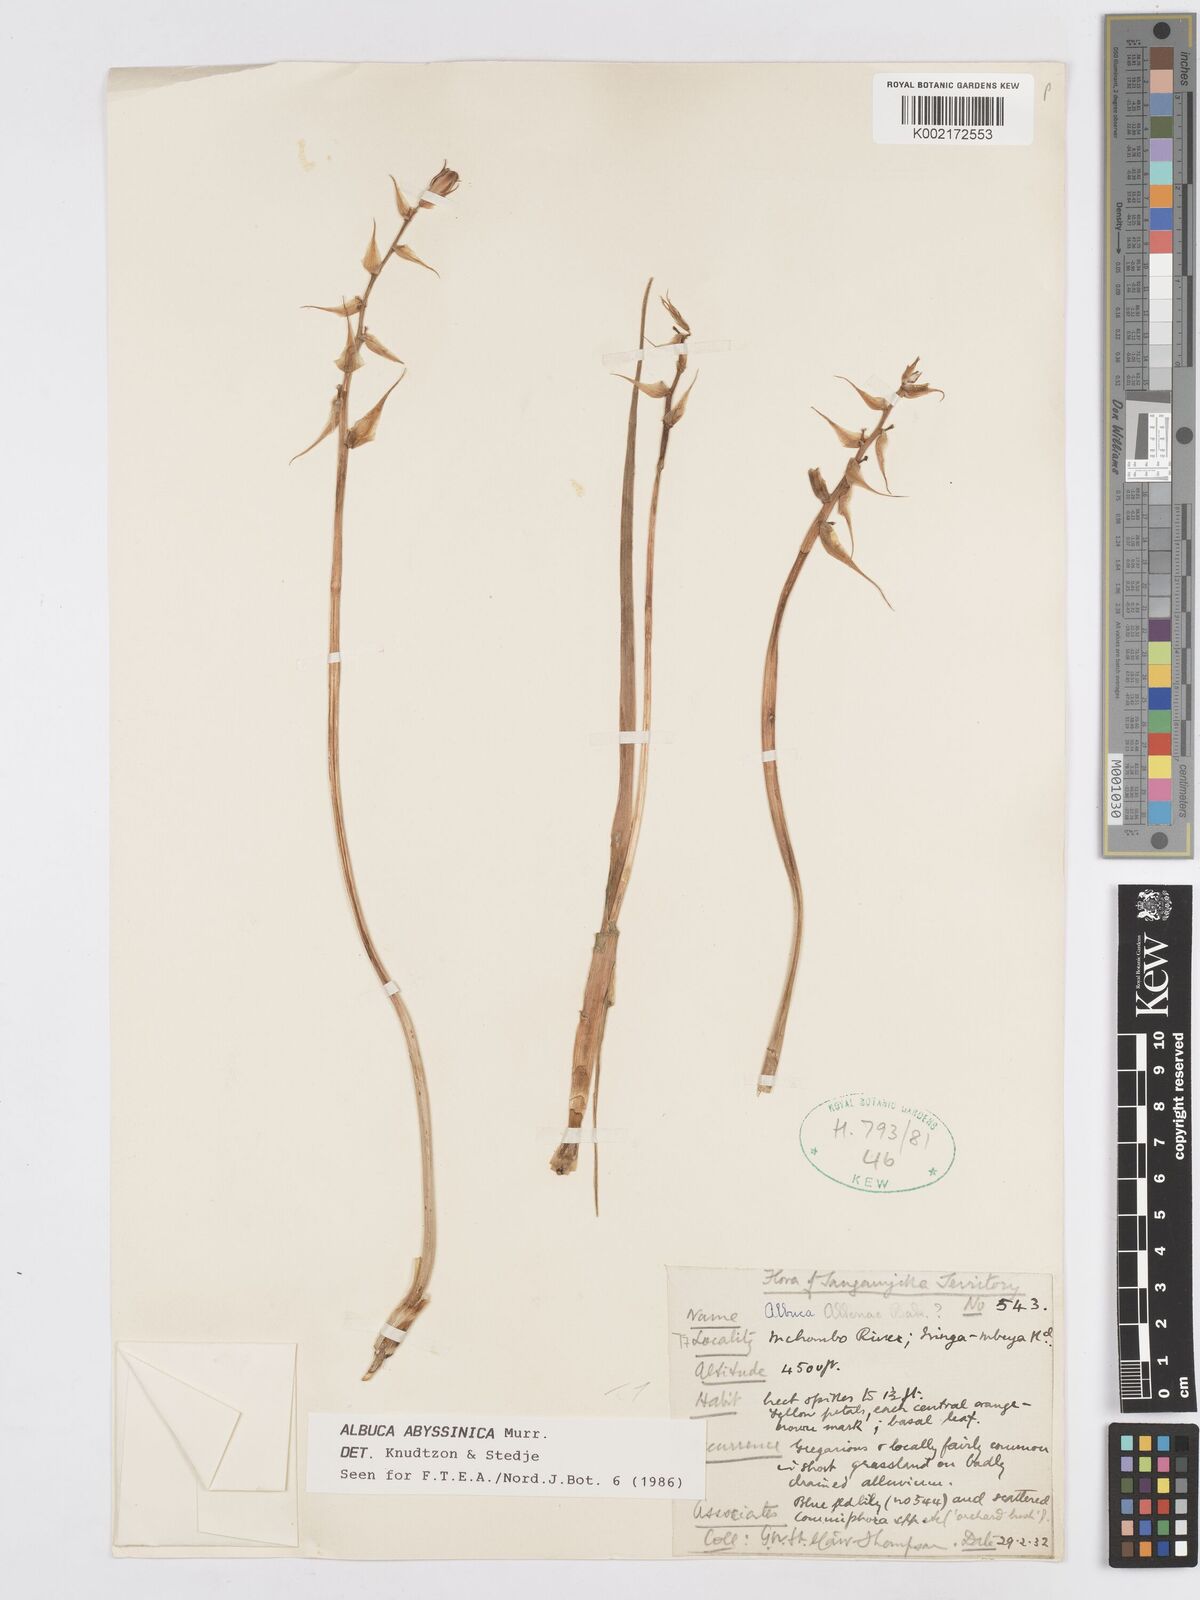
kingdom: Plantae
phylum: Tracheophyta
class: Liliopsida
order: Asparagales
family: Asparagaceae
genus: Albuca
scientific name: Albuca abyssinica
